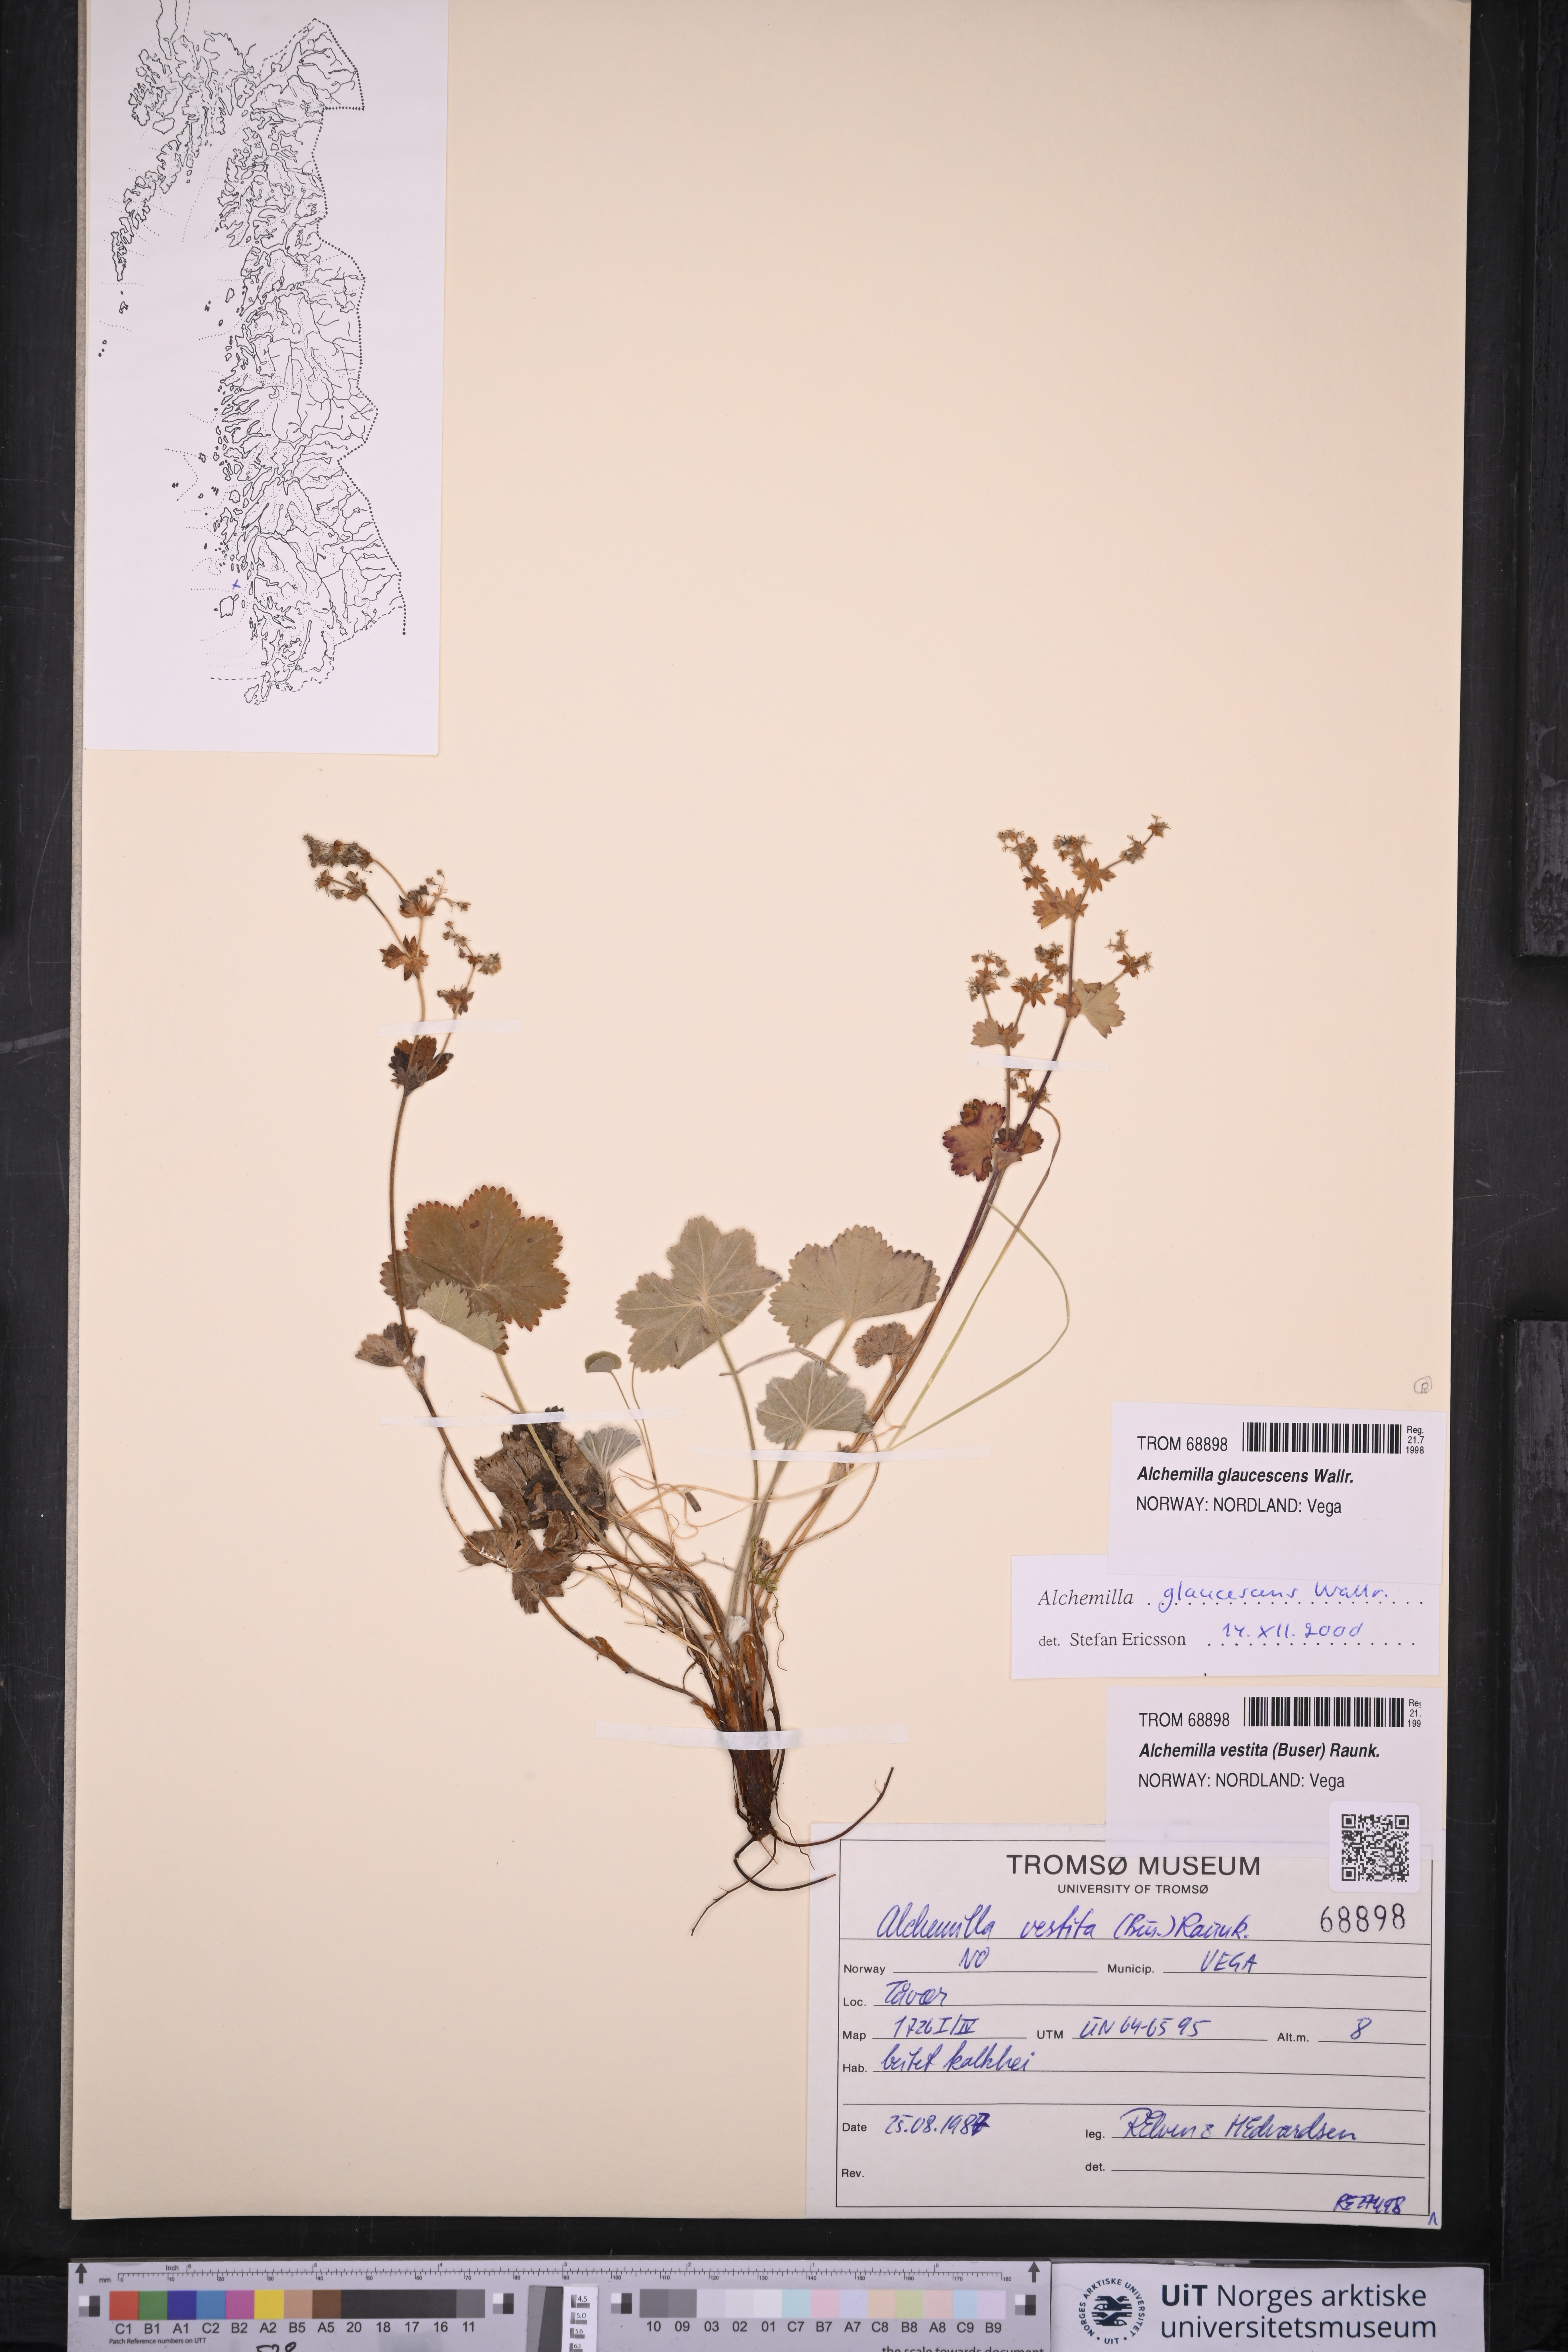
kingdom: Plantae
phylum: Tracheophyta
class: Magnoliopsida
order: Rosales
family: Rosaceae
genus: Alchemilla
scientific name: Alchemilla glaucescens
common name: Silky lady's mantle
